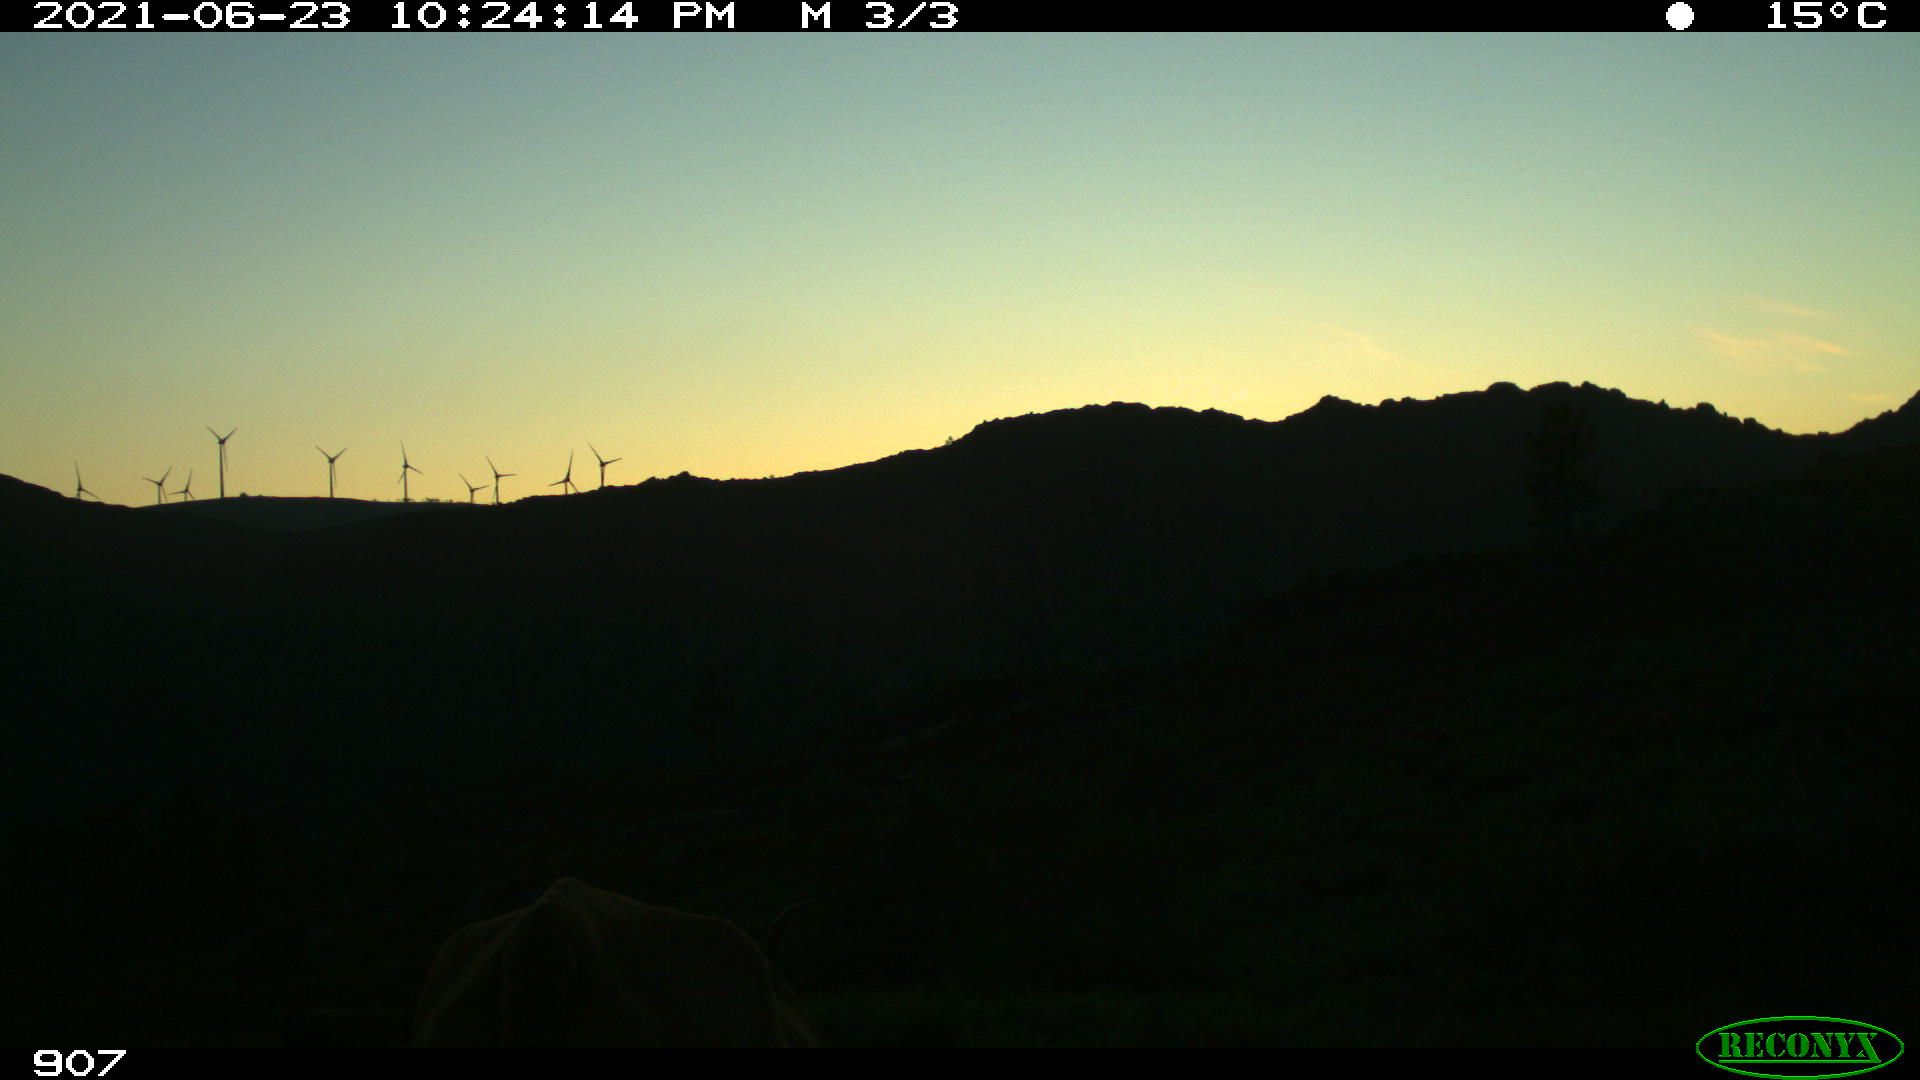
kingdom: Animalia
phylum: Chordata
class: Mammalia
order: Artiodactyla
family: Bovidae
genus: Bos
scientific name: Bos taurus
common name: Domesticated cattle
